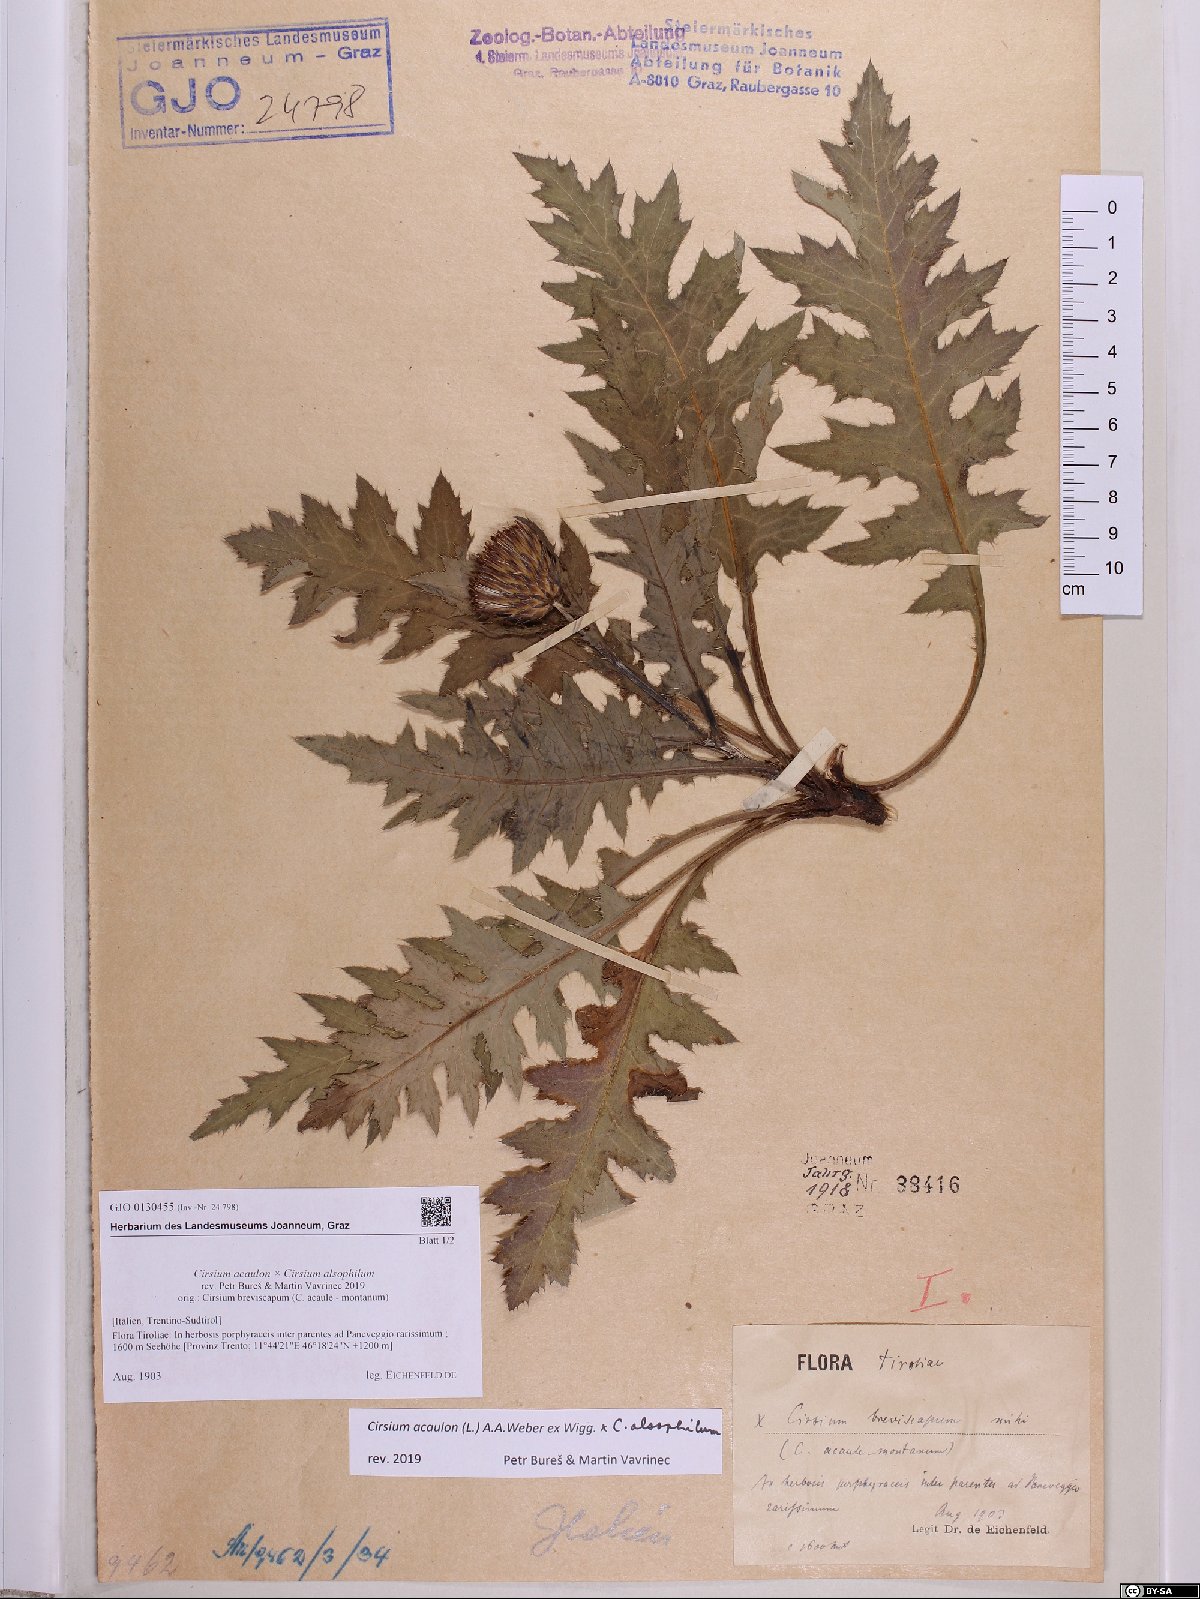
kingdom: Plantae
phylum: Tracheophyta
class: Magnoliopsida
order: Asterales
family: Asteraceae
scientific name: Asteraceae
